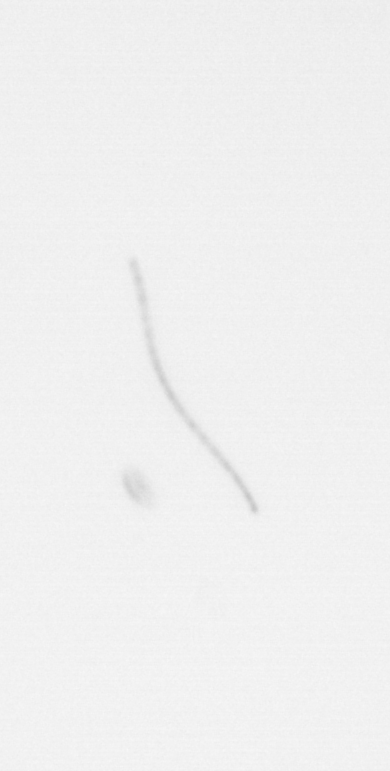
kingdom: Chromista
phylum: Ochrophyta
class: Bacillariophyceae
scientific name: Bacillariophyceae
